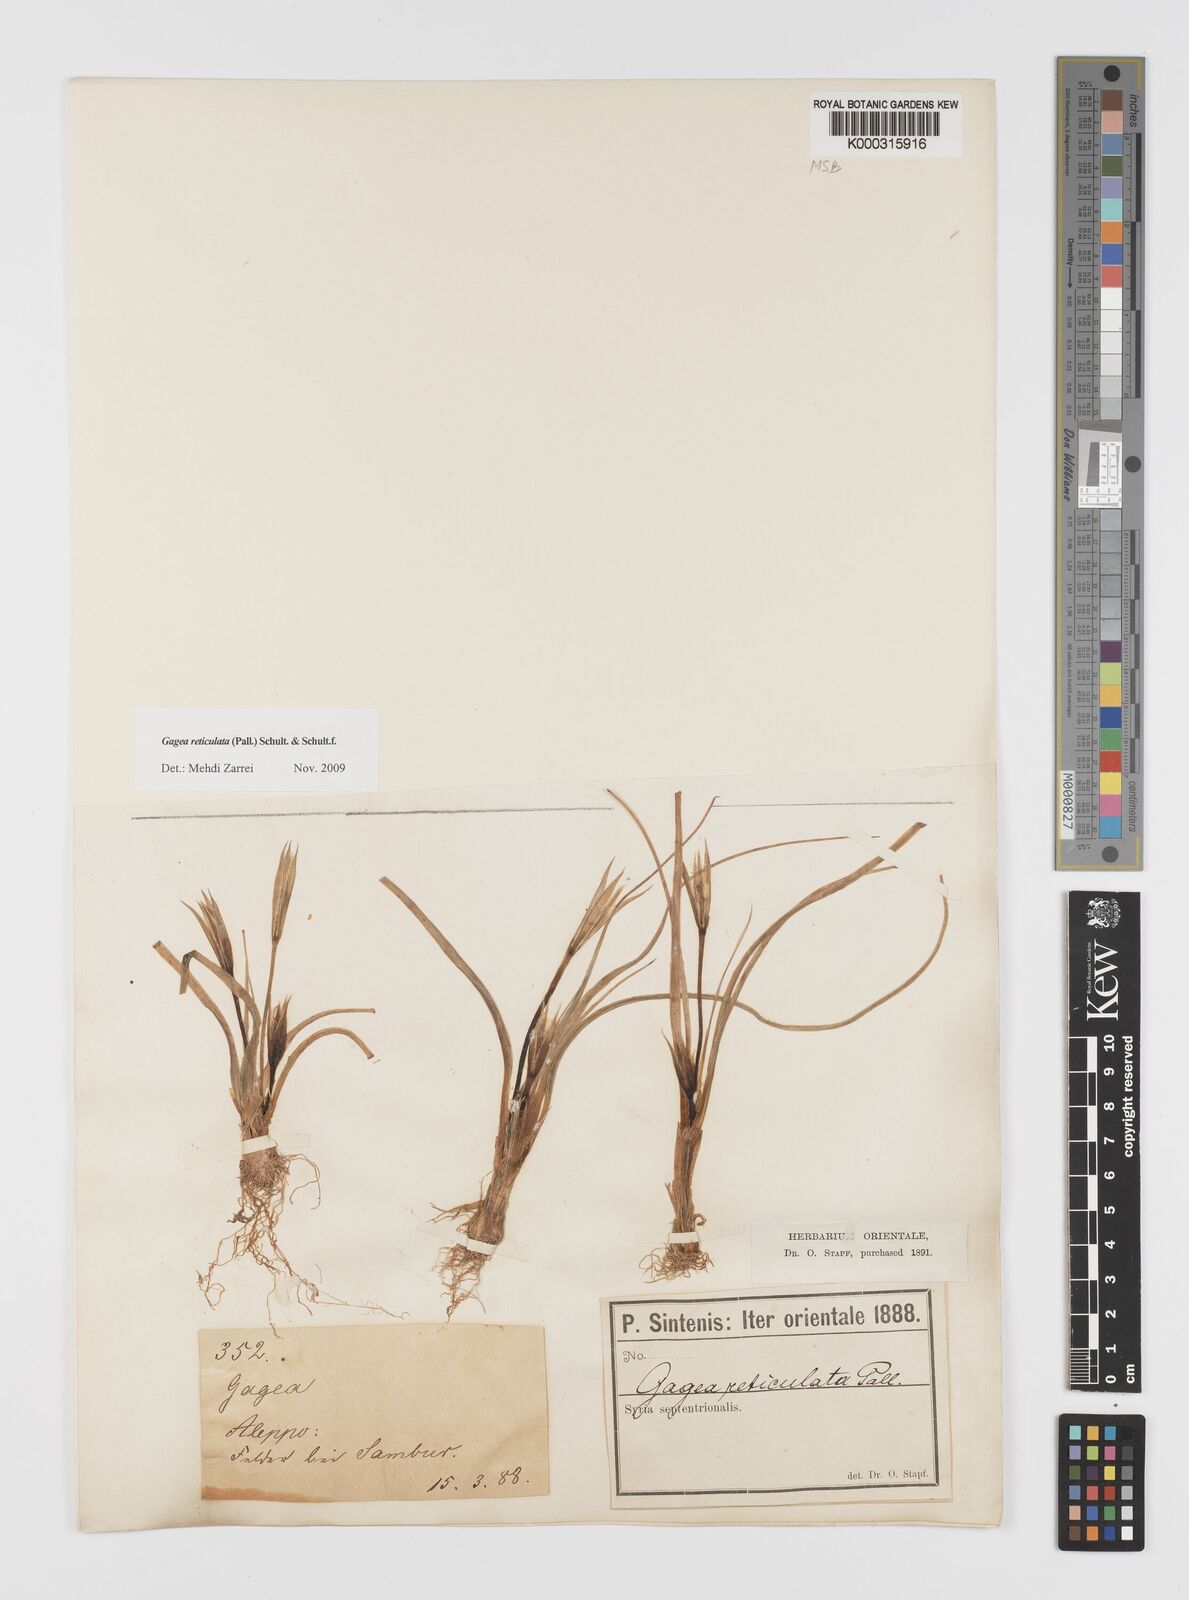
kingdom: Plantae
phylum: Tracheophyta
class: Liliopsida
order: Liliales
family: Liliaceae
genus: Gagea
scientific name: Gagea reticulata
